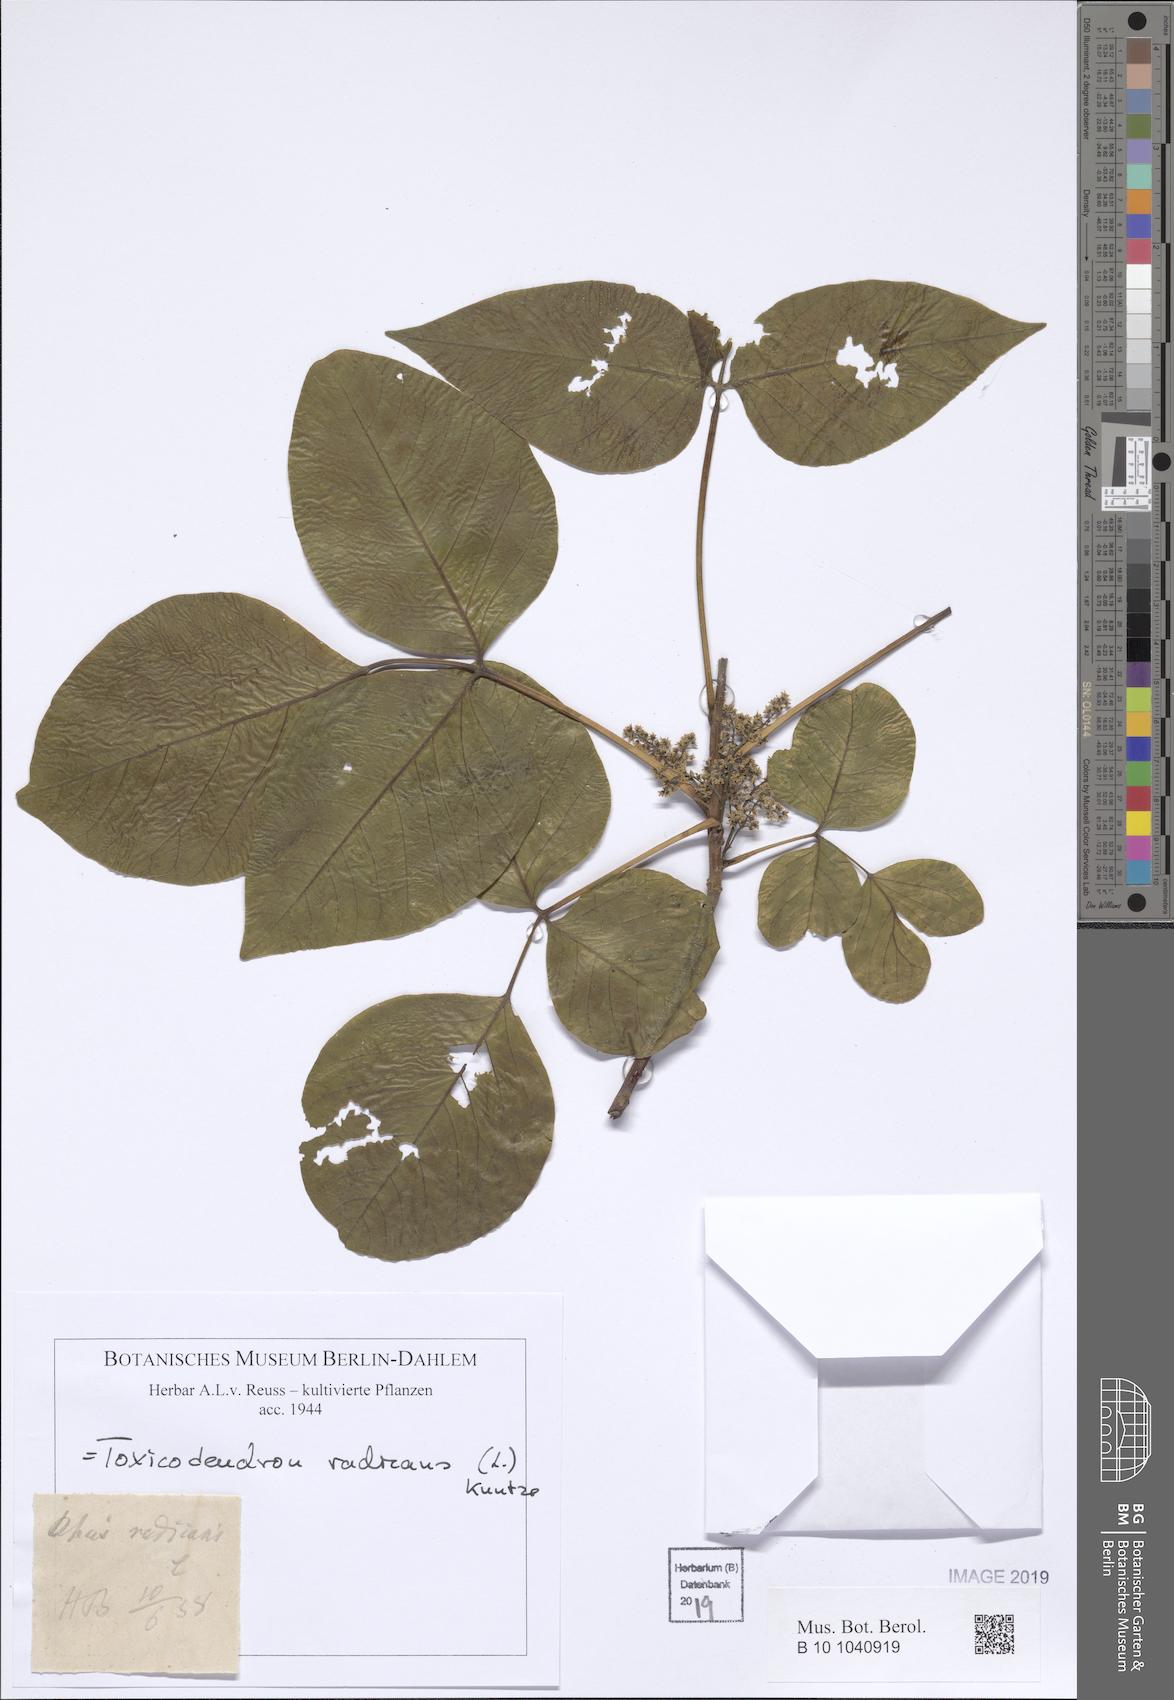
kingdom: Plantae
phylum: Tracheophyta
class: Magnoliopsida
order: Sapindales
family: Anacardiaceae
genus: Toxicodendron
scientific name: Toxicodendron radicans
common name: Poison ivy
